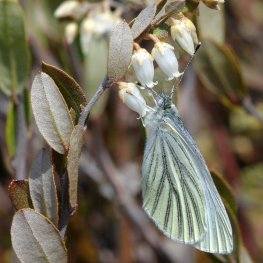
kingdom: Animalia
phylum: Arthropoda
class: Insecta
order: Lepidoptera
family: Pieridae
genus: Pieris
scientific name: Pieris oleracea
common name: Mustard White
